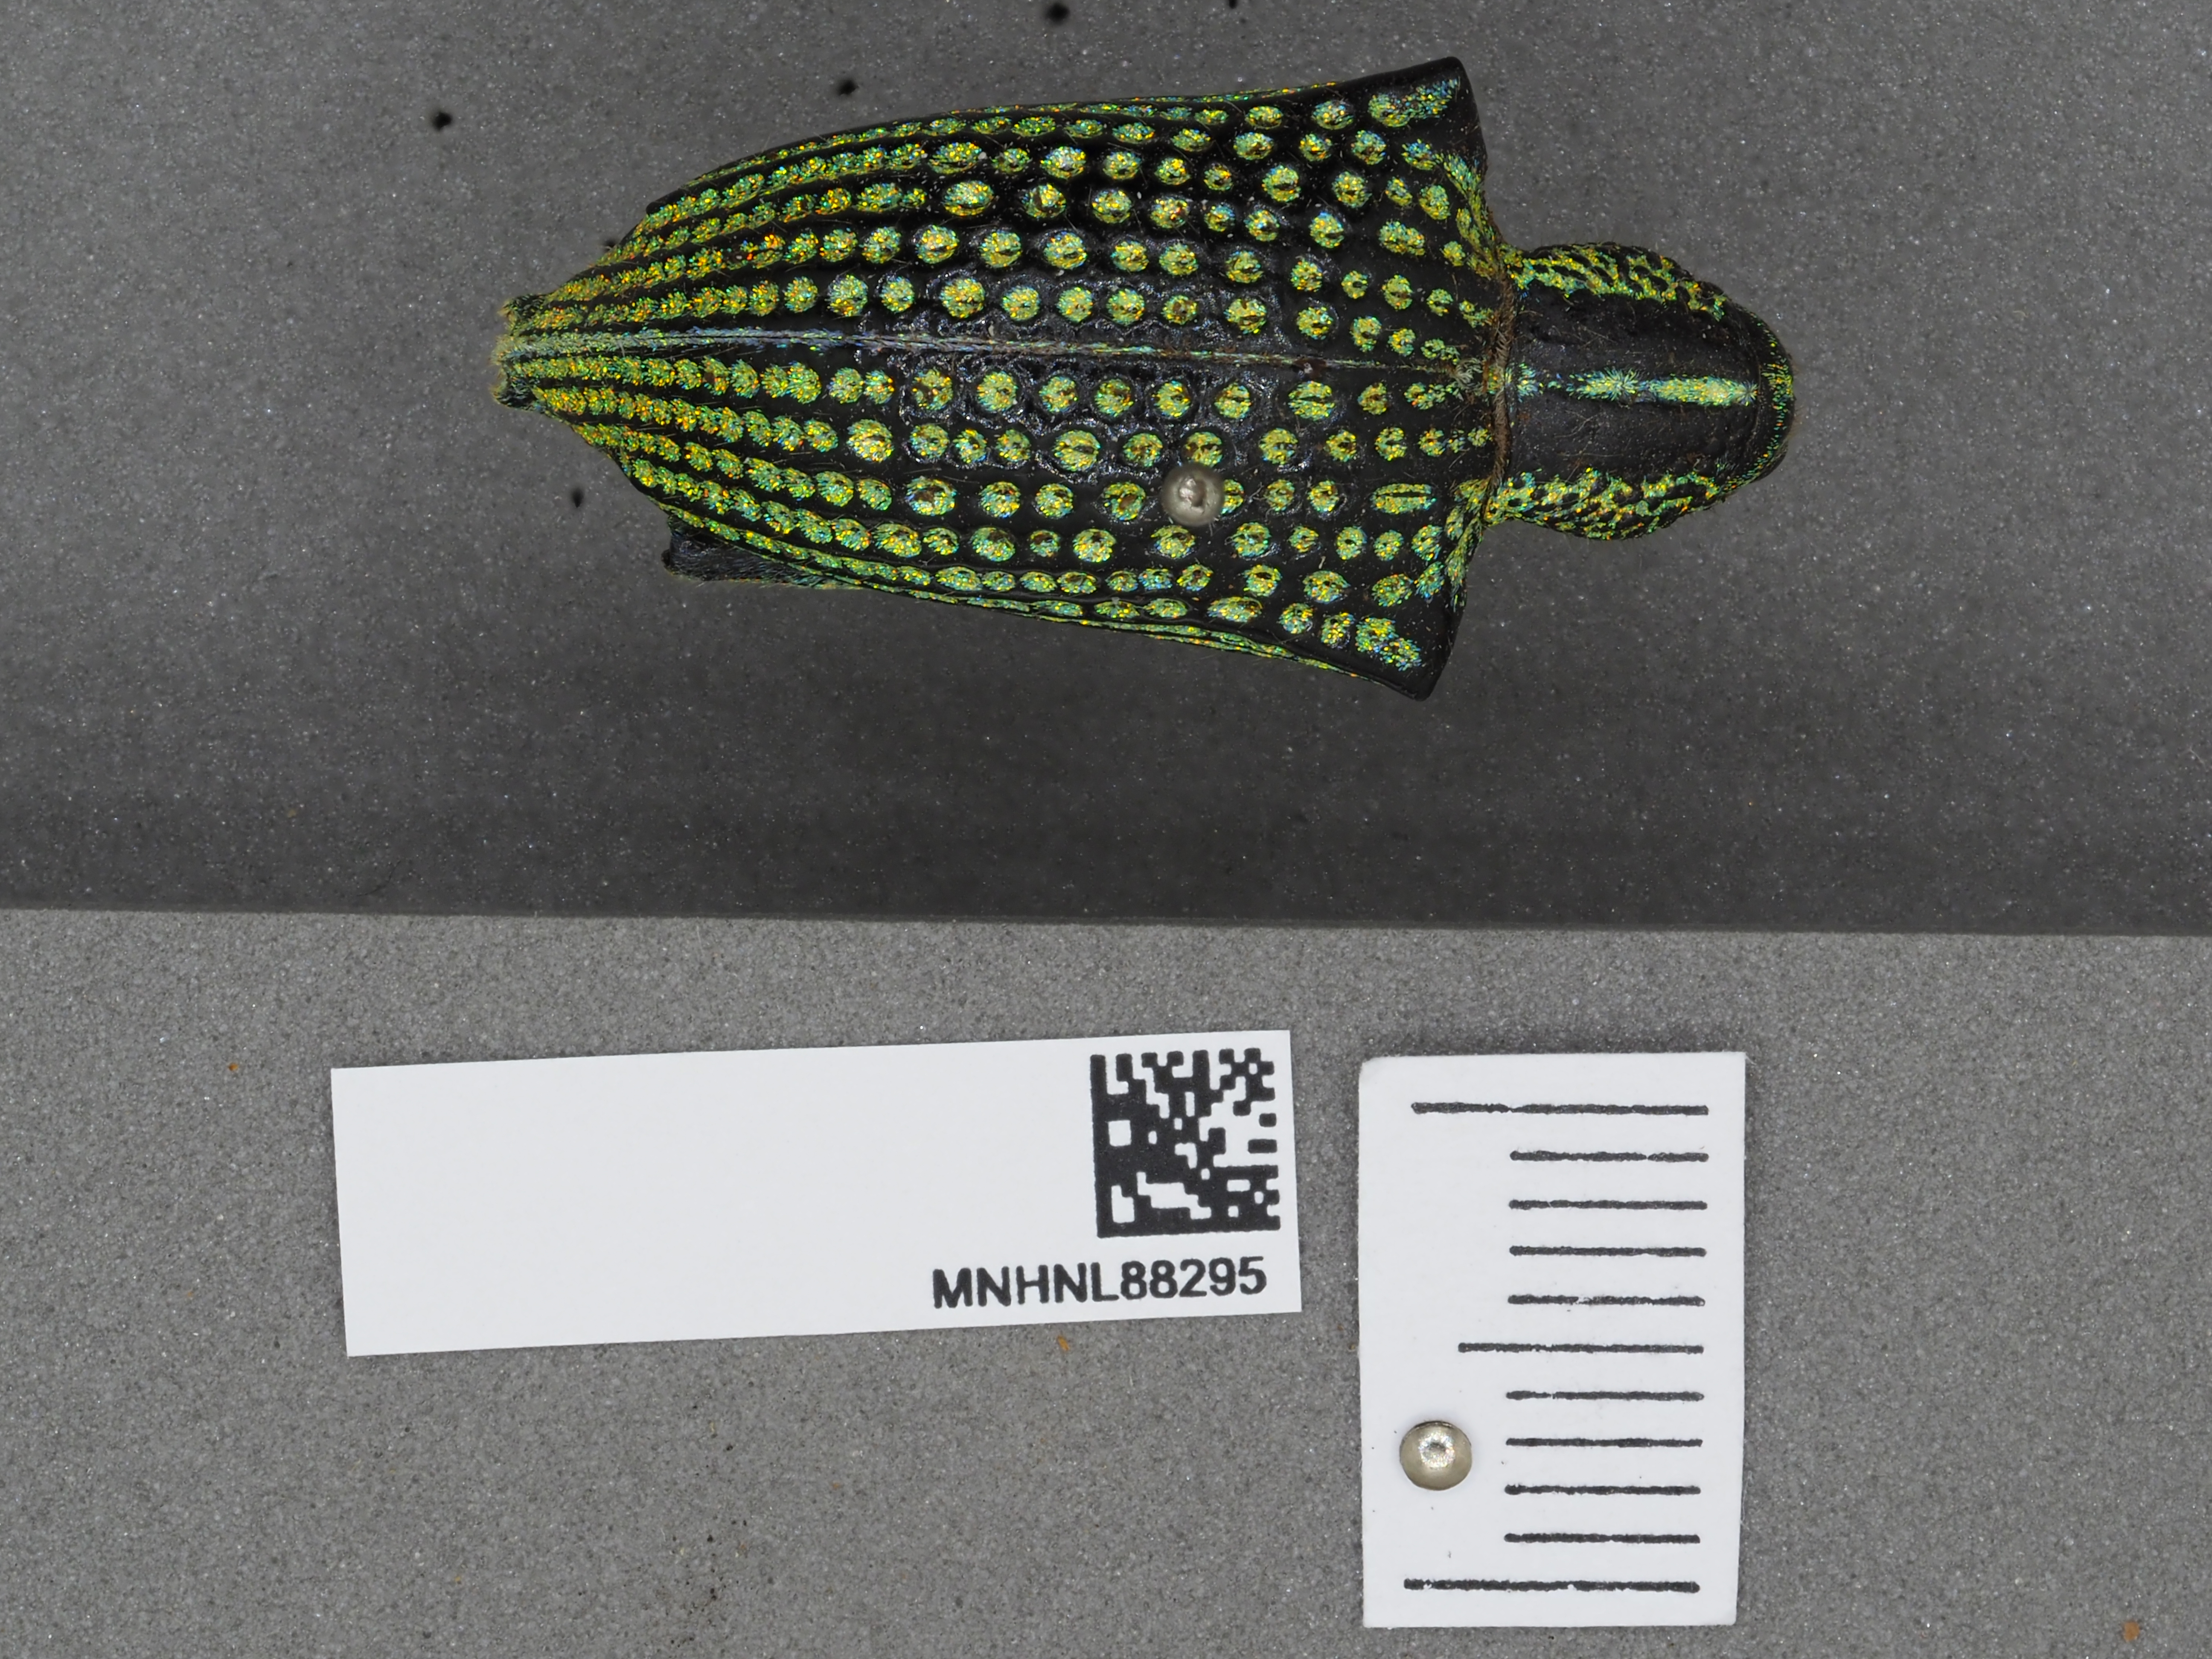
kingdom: Animalia
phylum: Arthropoda
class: Insecta
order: Coleoptera
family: Curculionidae
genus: Entimus
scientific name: Entimus imperialis
